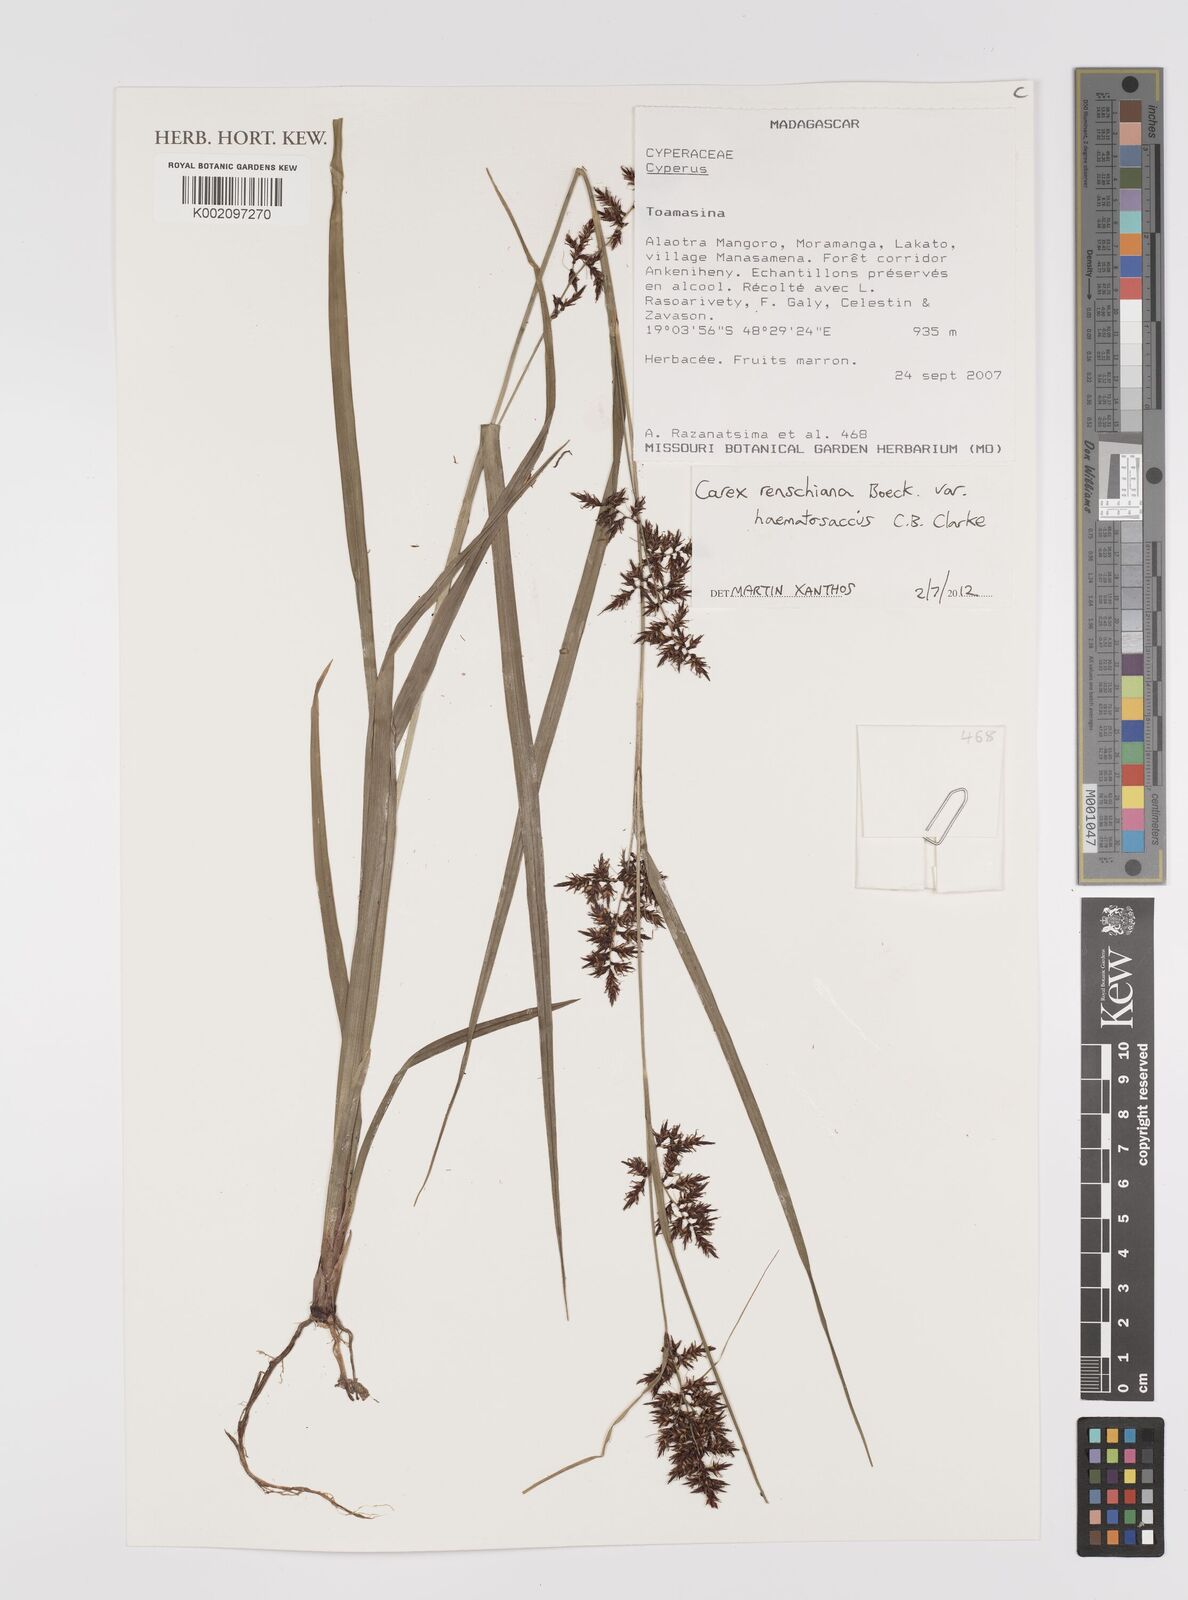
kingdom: Plantae
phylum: Tracheophyta
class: Liliopsida
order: Poales
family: Cyperaceae
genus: Carex
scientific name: Carex renschiana
